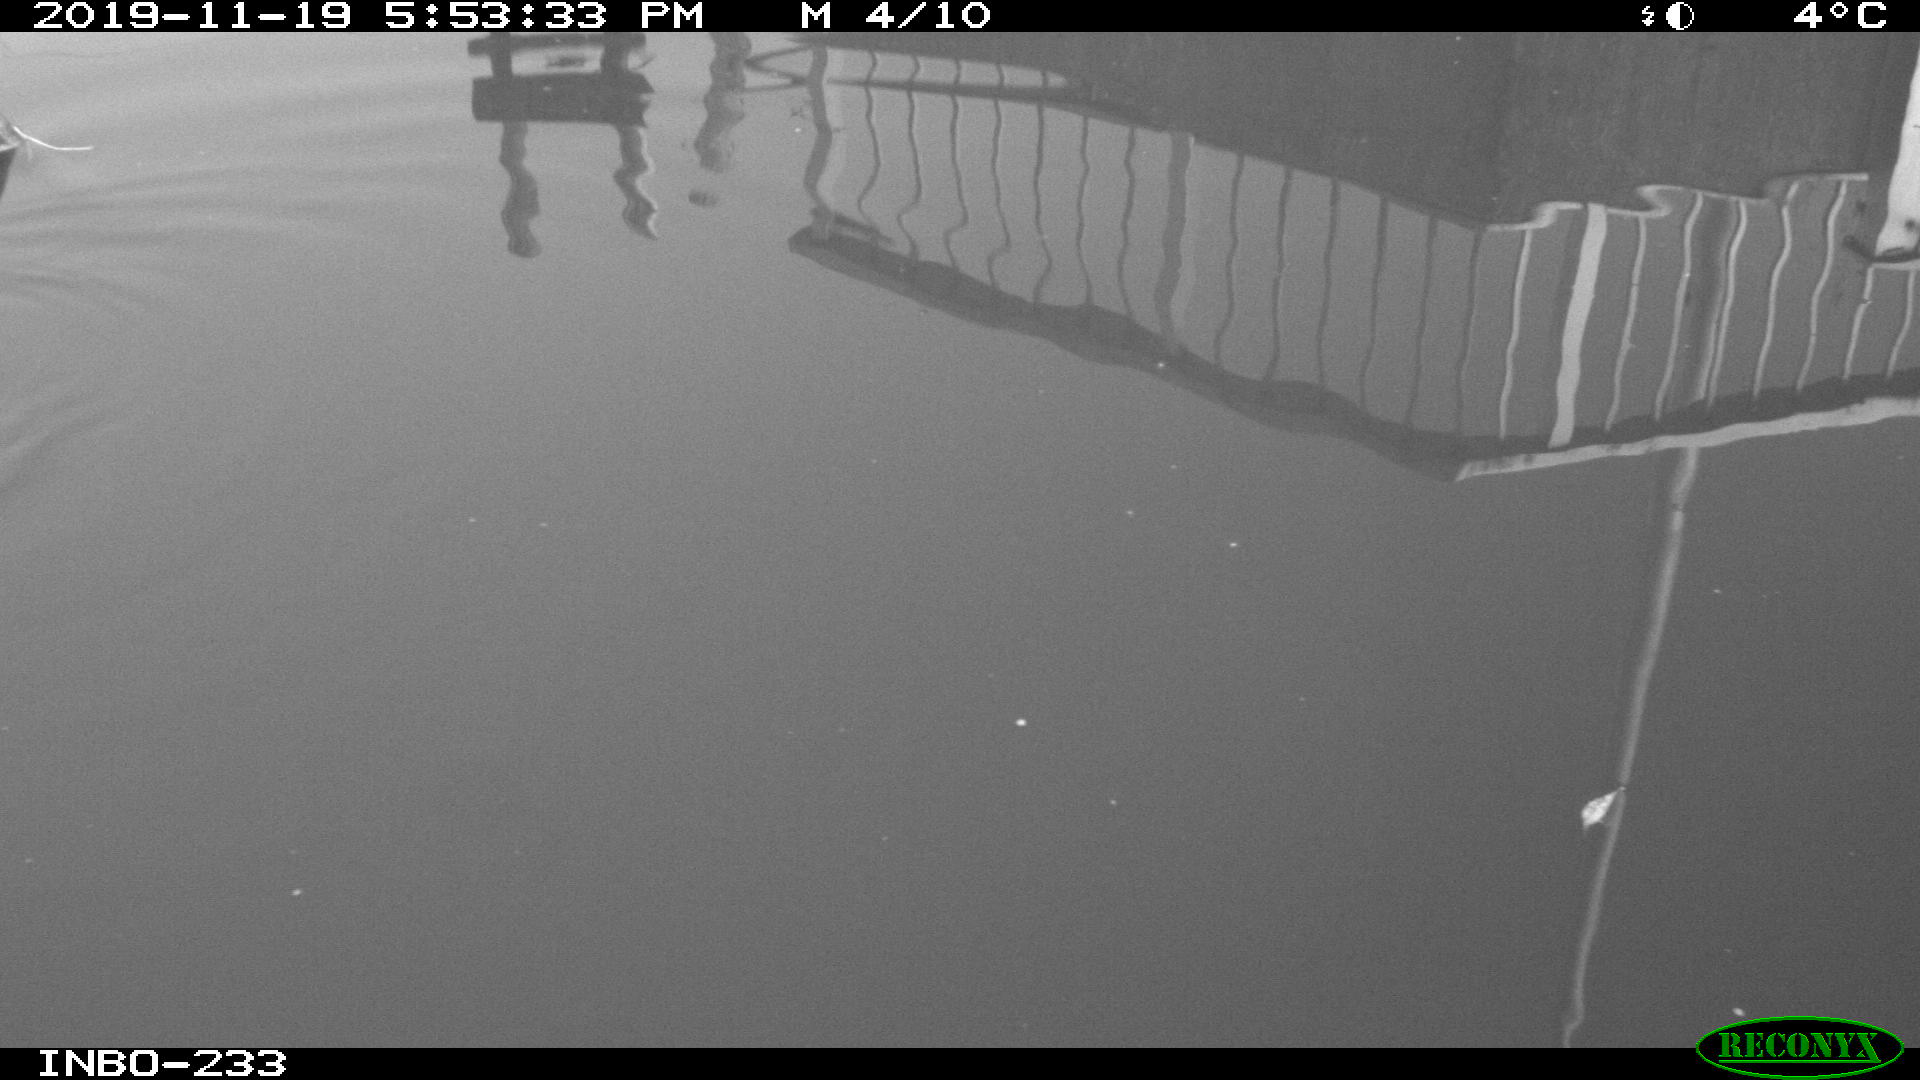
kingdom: Animalia
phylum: Chordata
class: Aves
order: Gruiformes
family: Rallidae
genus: Gallinula
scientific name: Gallinula chloropus
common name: Common moorhen
